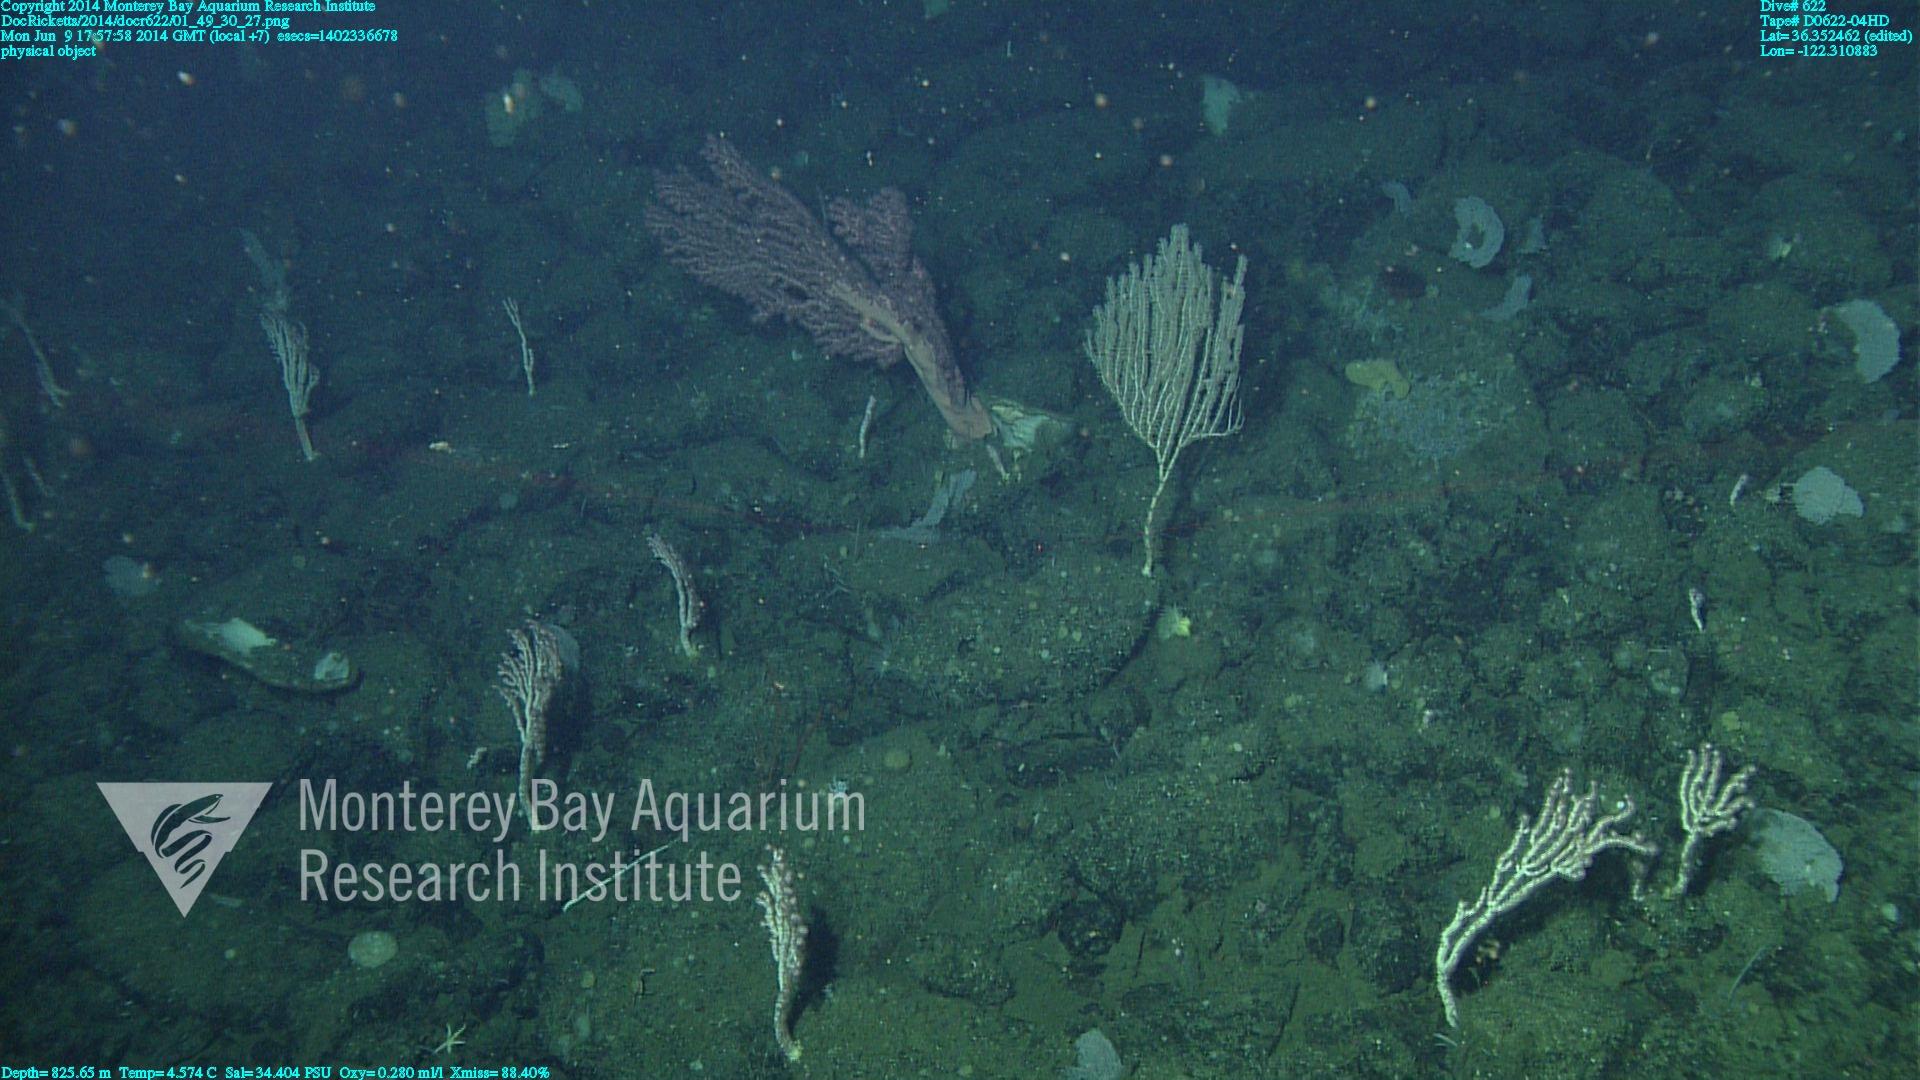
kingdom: Animalia
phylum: Cnidaria
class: Anthozoa
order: Scleralcyonacea
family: Coralliidae
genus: Paragorgia
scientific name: Paragorgia arborea
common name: Bubble gum coral
